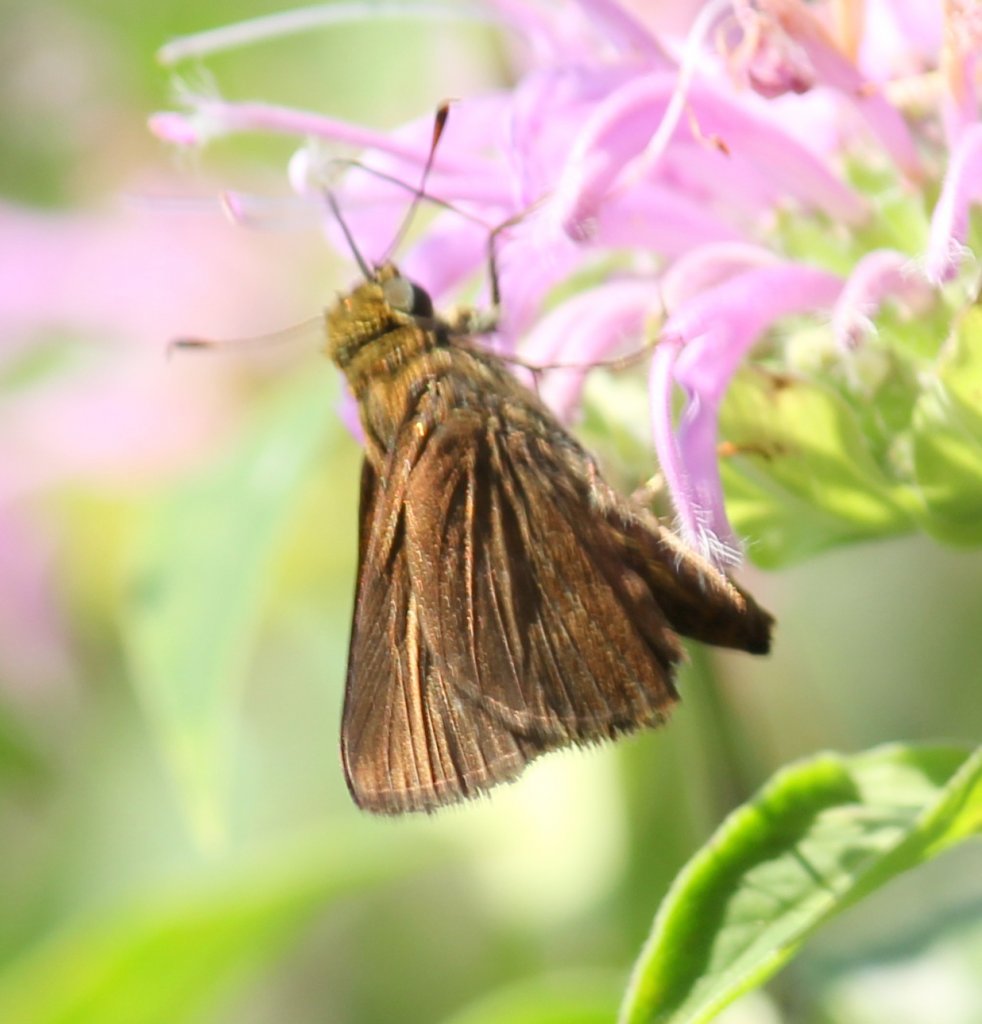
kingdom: Animalia
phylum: Arthropoda
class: Insecta
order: Lepidoptera
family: Hesperiidae
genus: Euphyes
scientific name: Euphyes vestris
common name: Dun Skipper
